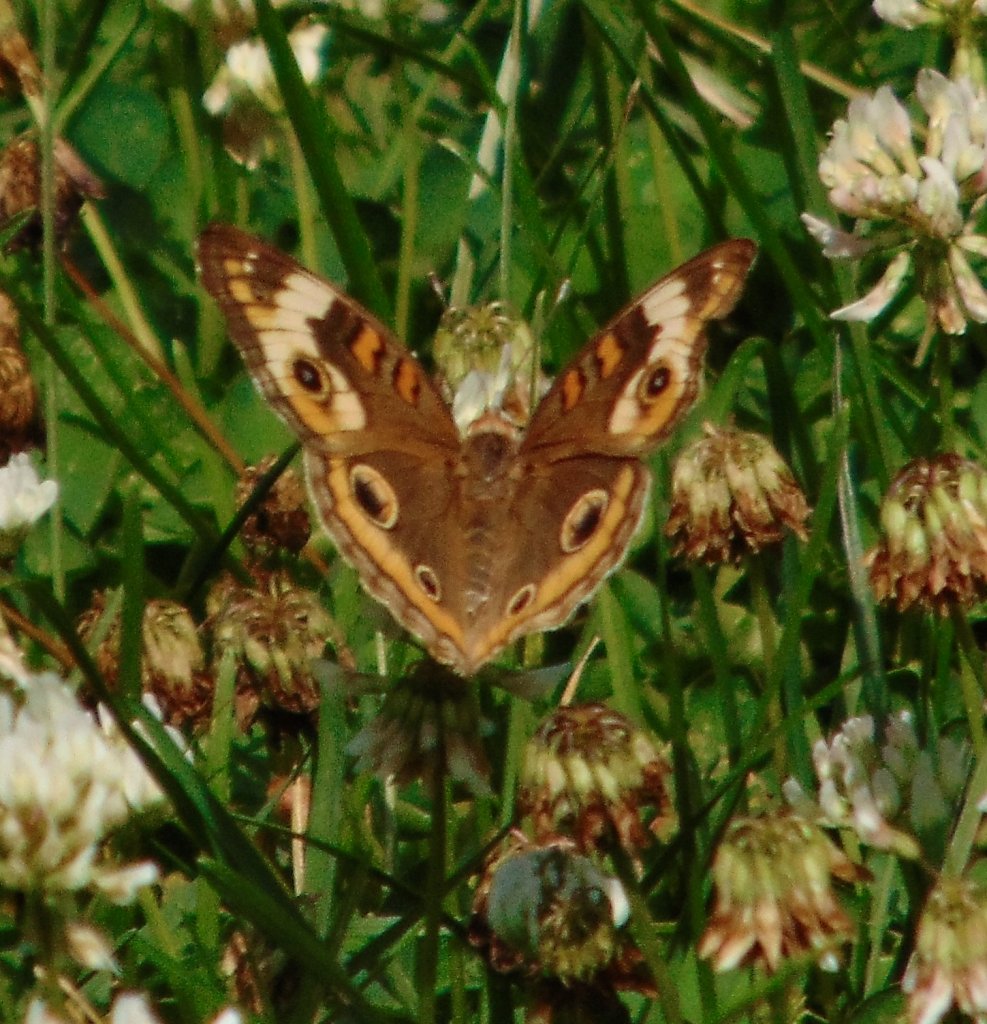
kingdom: Animalia
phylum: Arthropoda
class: Insecta
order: Lepidoptera
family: Nymphalidae
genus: Junonia
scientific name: Junonia coenia
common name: Common Buckeye
